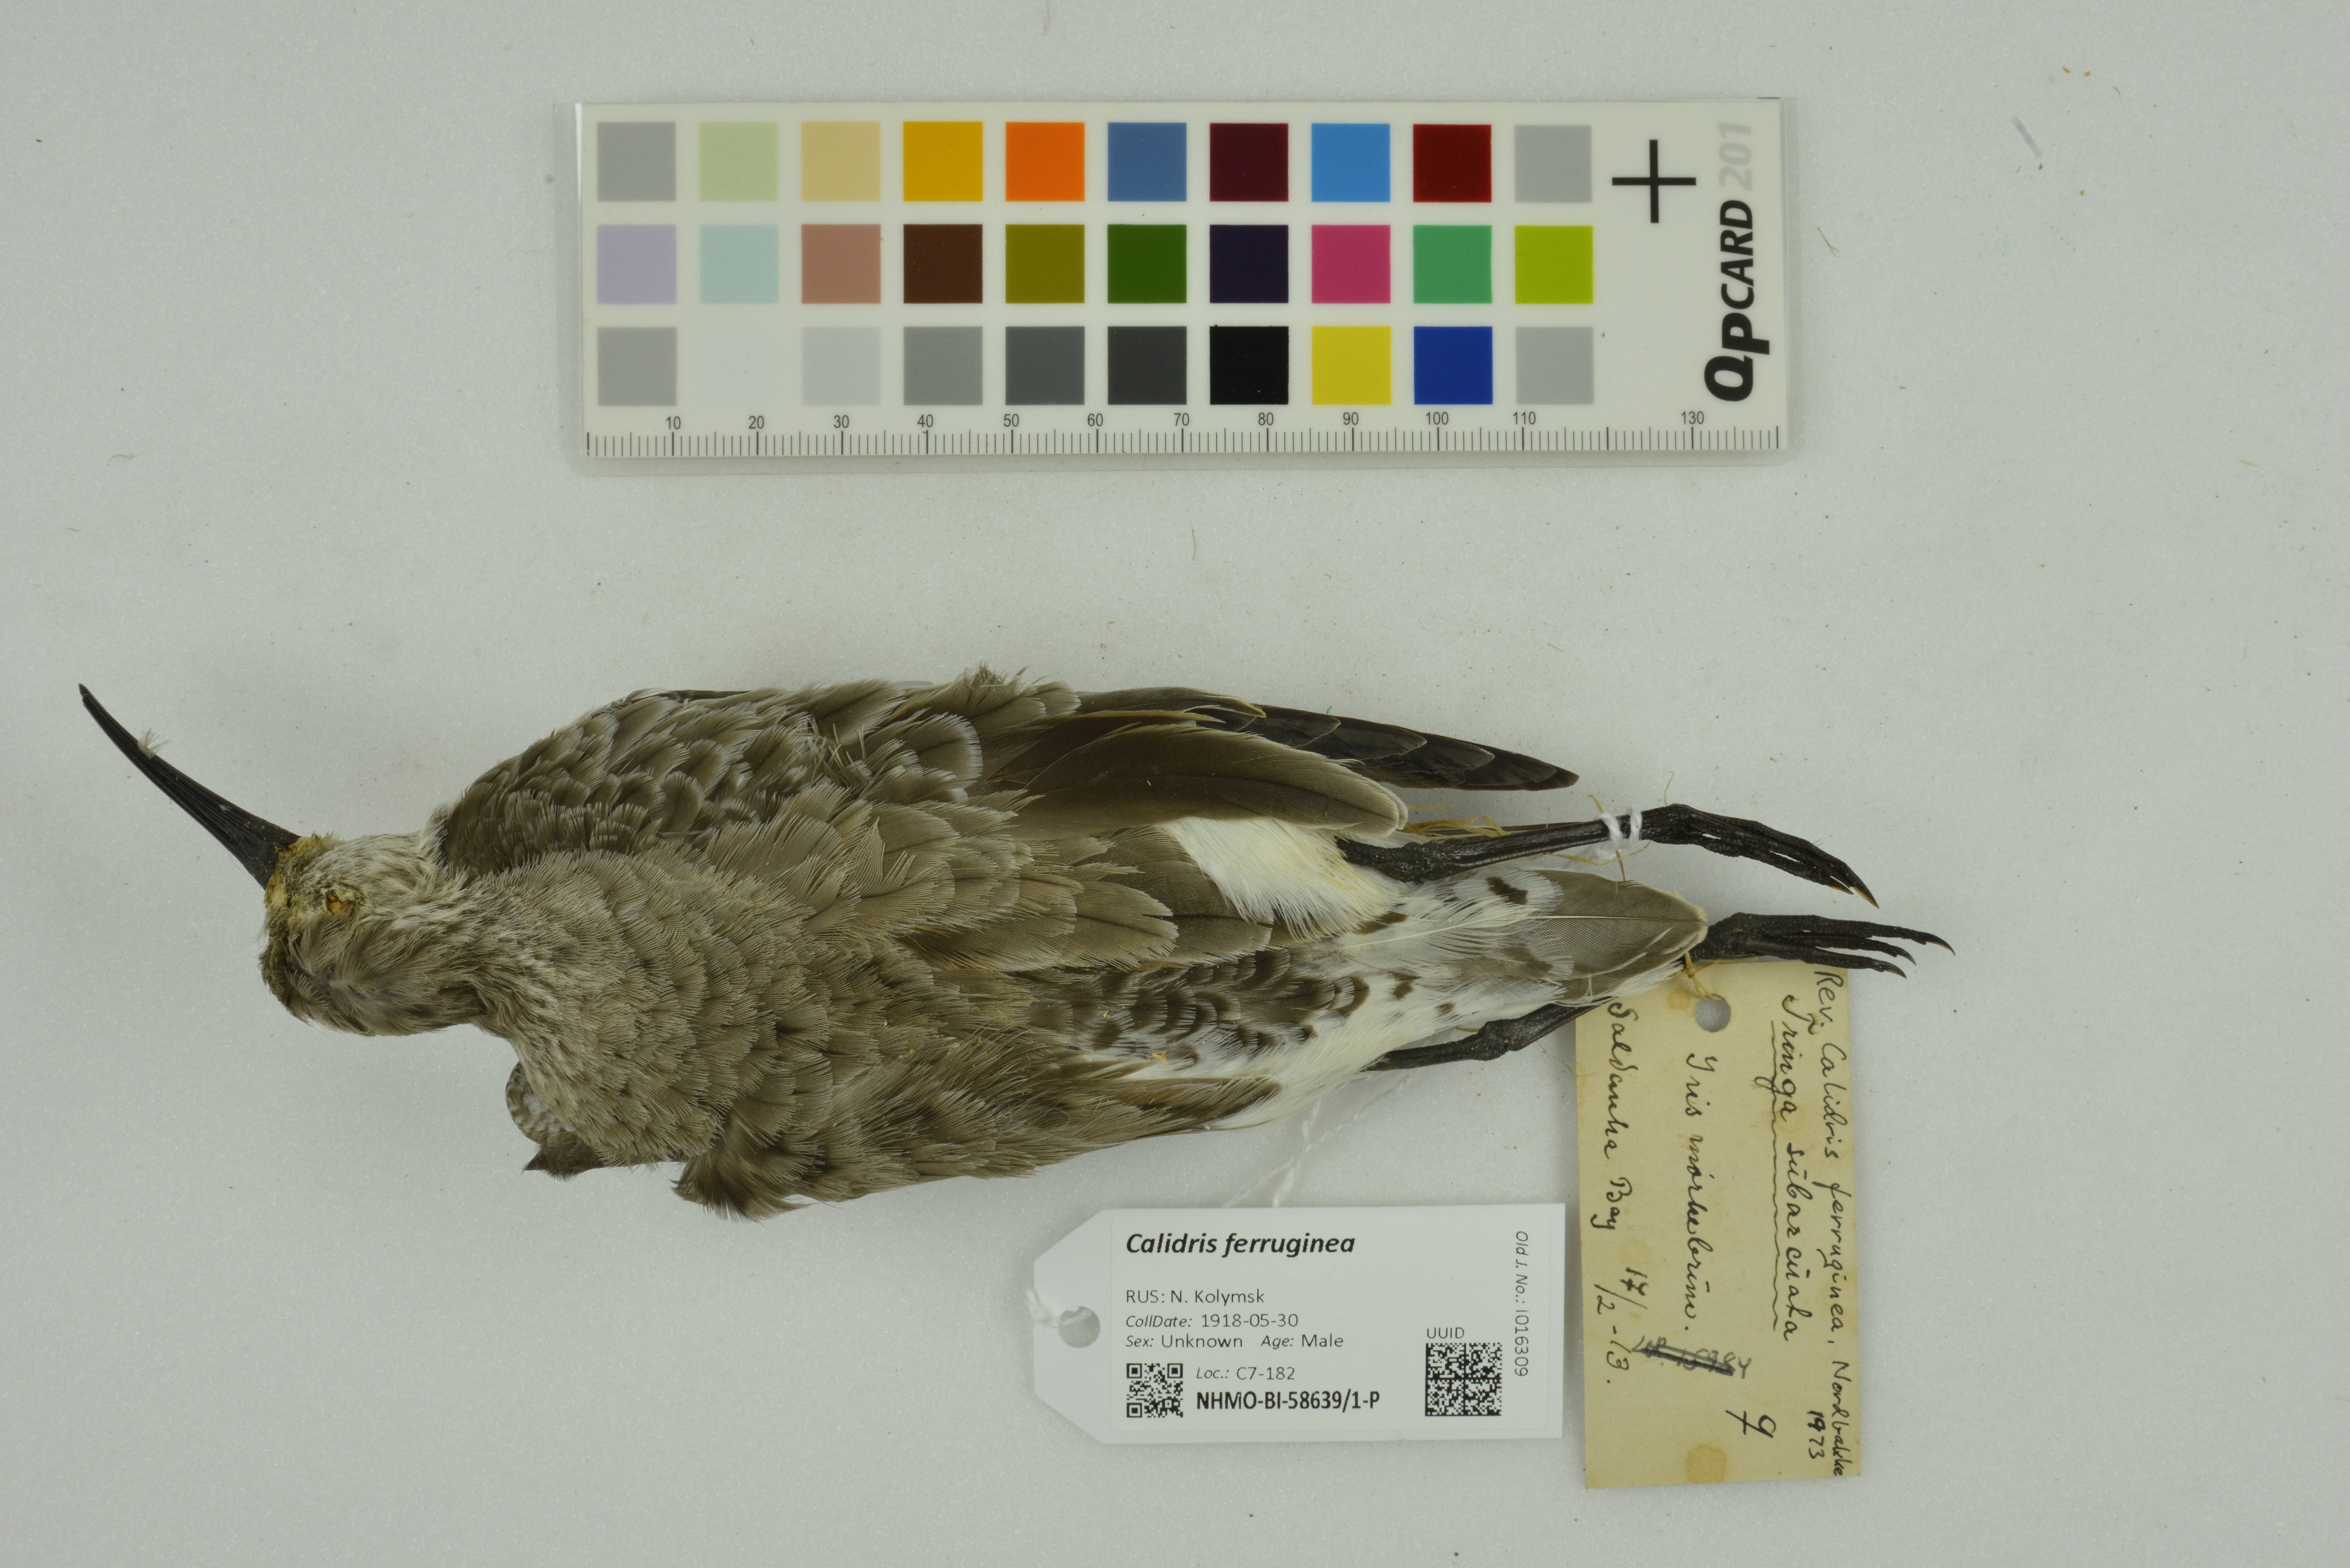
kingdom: Animalia
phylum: Chordata
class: Aves
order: Charadriiformes
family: Scolopacidae
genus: Calidris
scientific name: Calidris ferruginea
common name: Curlew sandpiper
